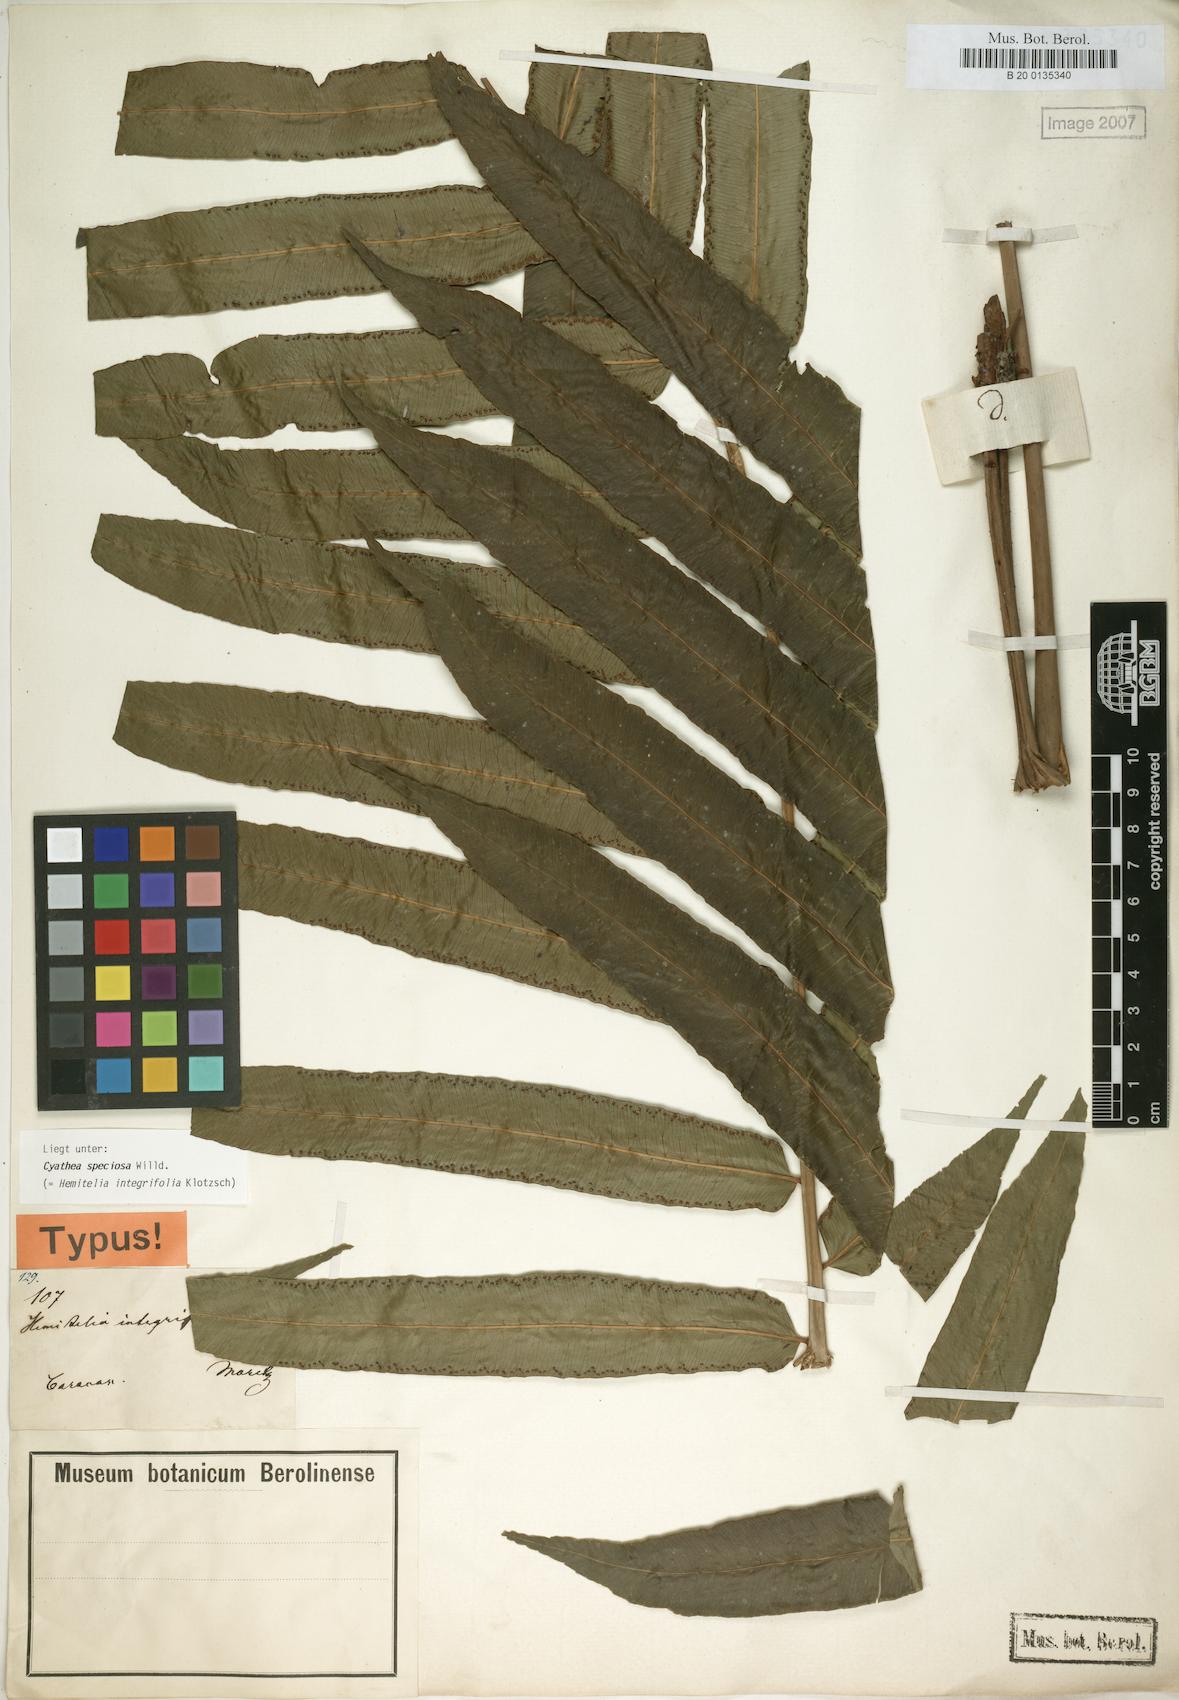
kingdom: Plantae
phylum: Tracheophyta
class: Polypodiopsida
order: Cyatheales
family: Cyatheaceae
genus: Cyathea
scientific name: Cyathea speciosa
